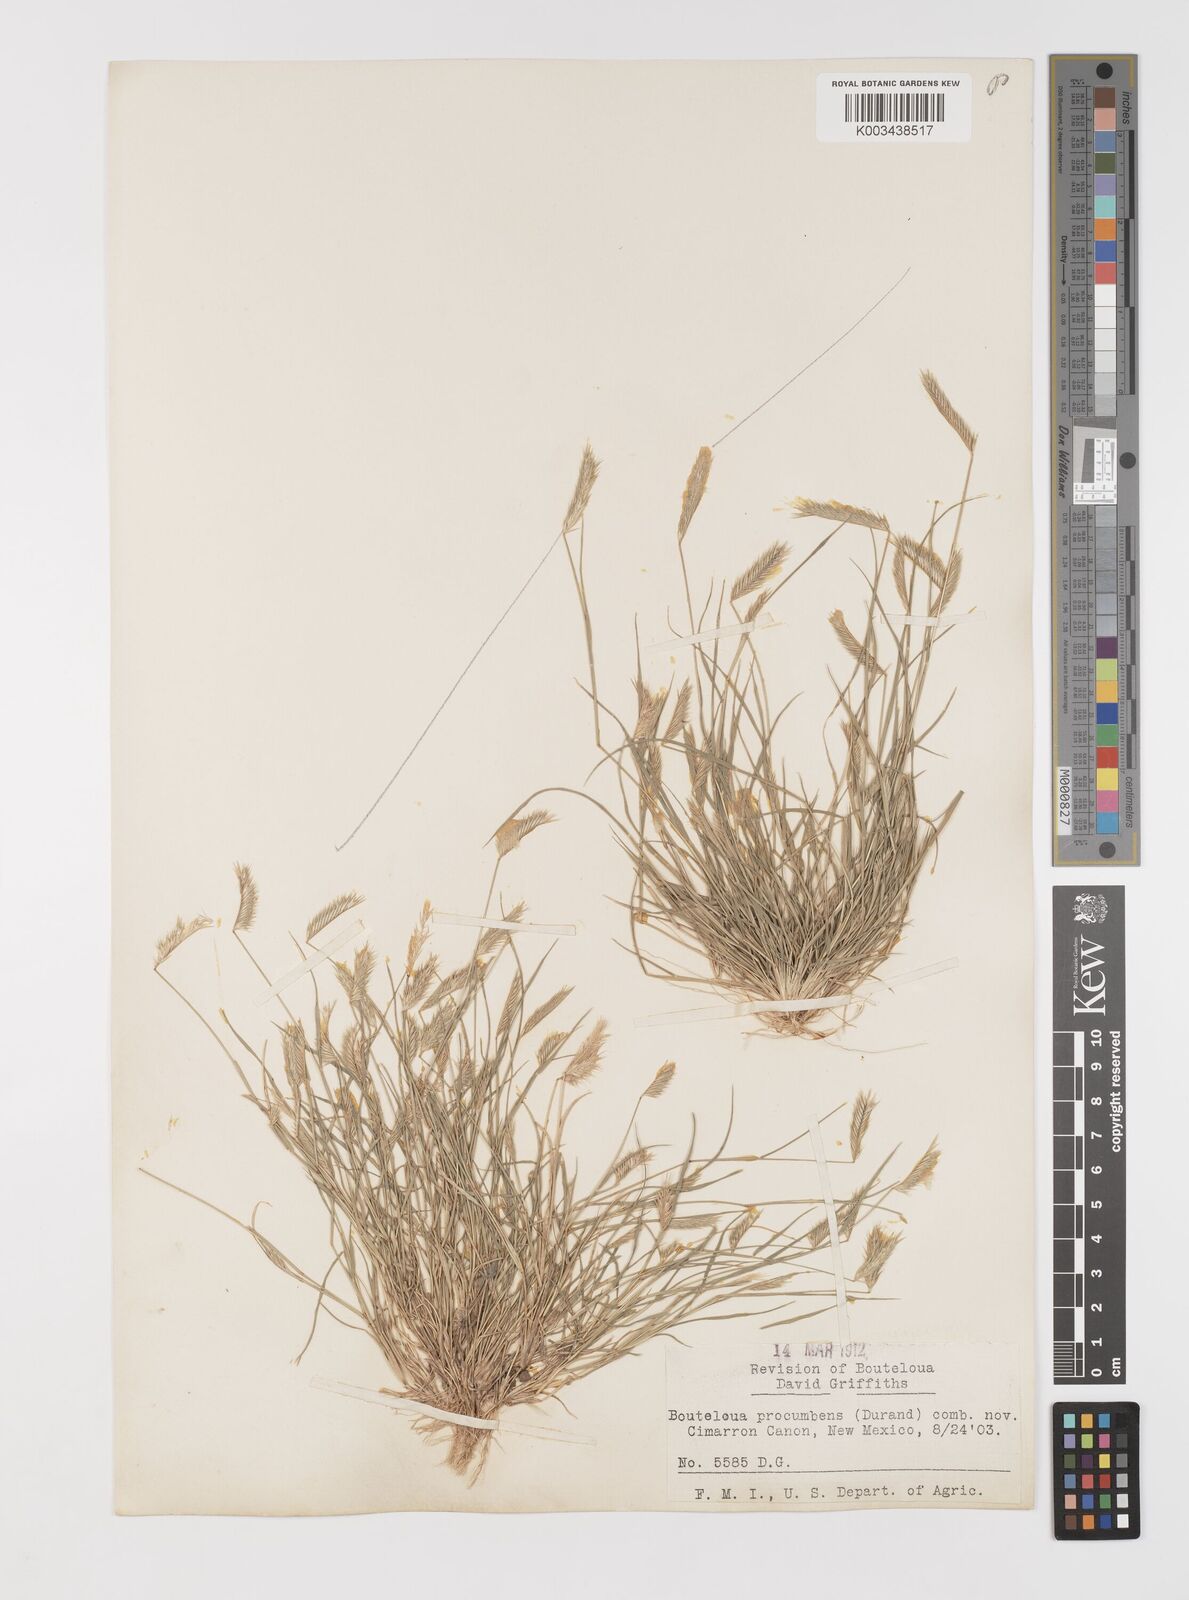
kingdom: Plantae
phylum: Tracheophyta
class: Liliopsida
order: Poales
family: Poaceae
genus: Bouteloua
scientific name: Bouteloua simplex
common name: Mat grama
